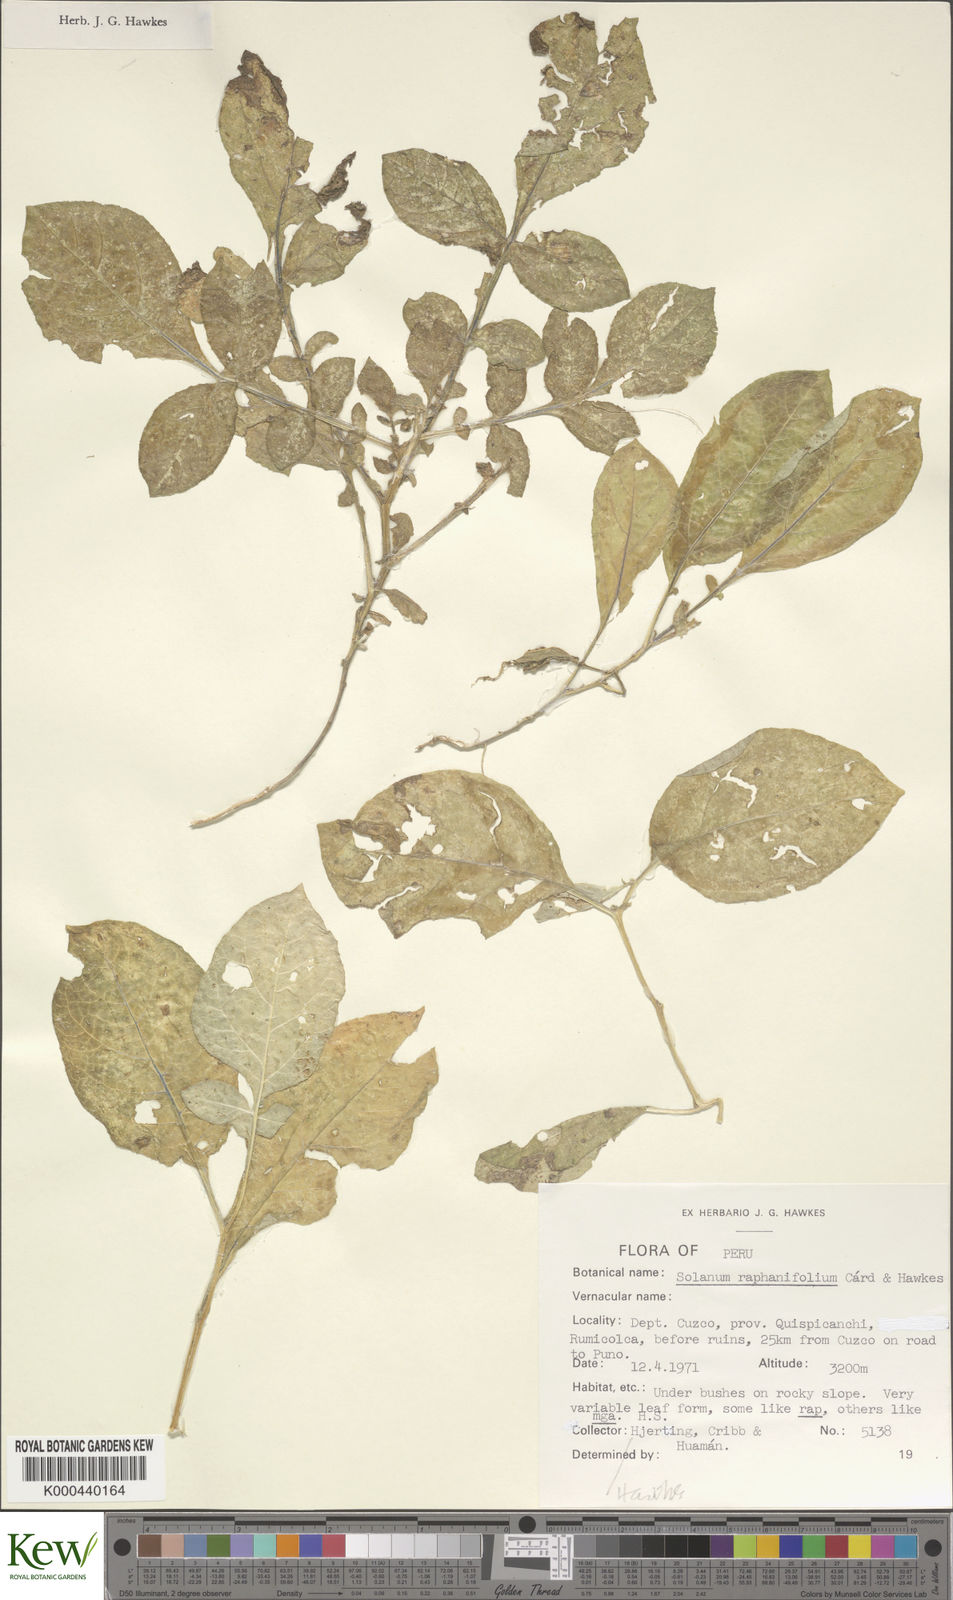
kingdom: Plantae
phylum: Tracheophyta
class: Magnoliopsida
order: Solanales
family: Solanaceae
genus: Solanum
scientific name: Solanum raphanifolium
